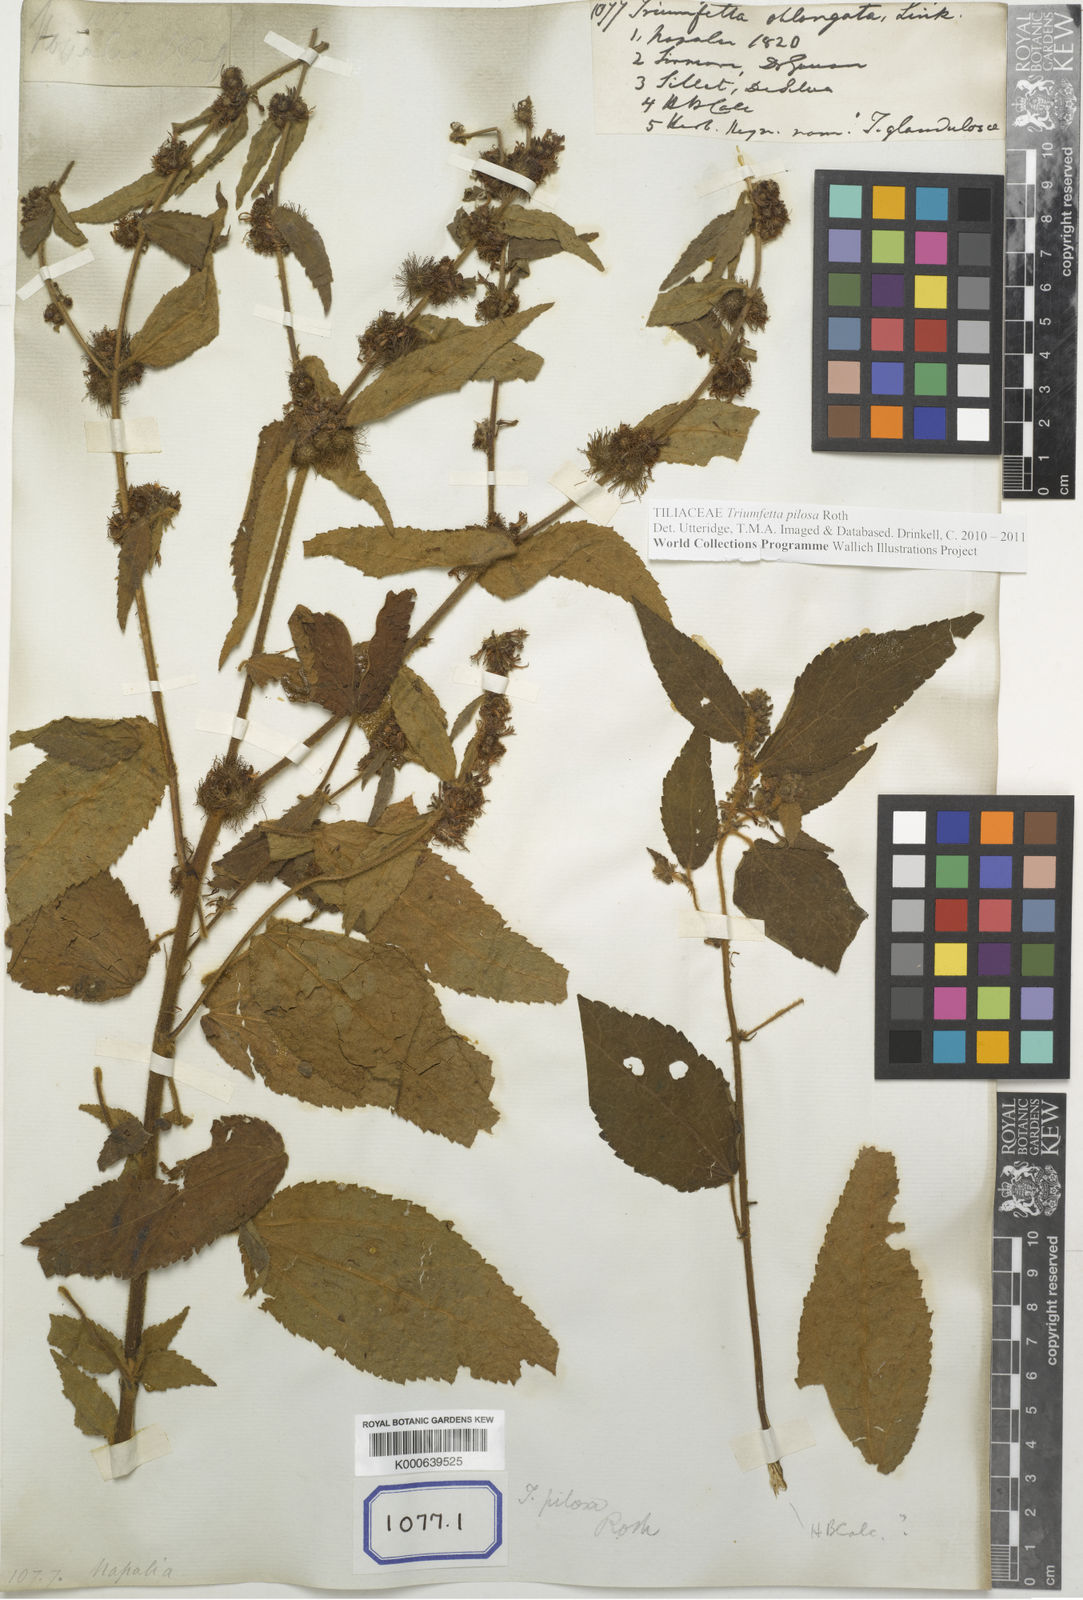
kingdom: Plantae
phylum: Tracheophyta
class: Magnoliopsida
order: Malvales
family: Malvaceae
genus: Triumfetta
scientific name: Triumfetta pilosa
